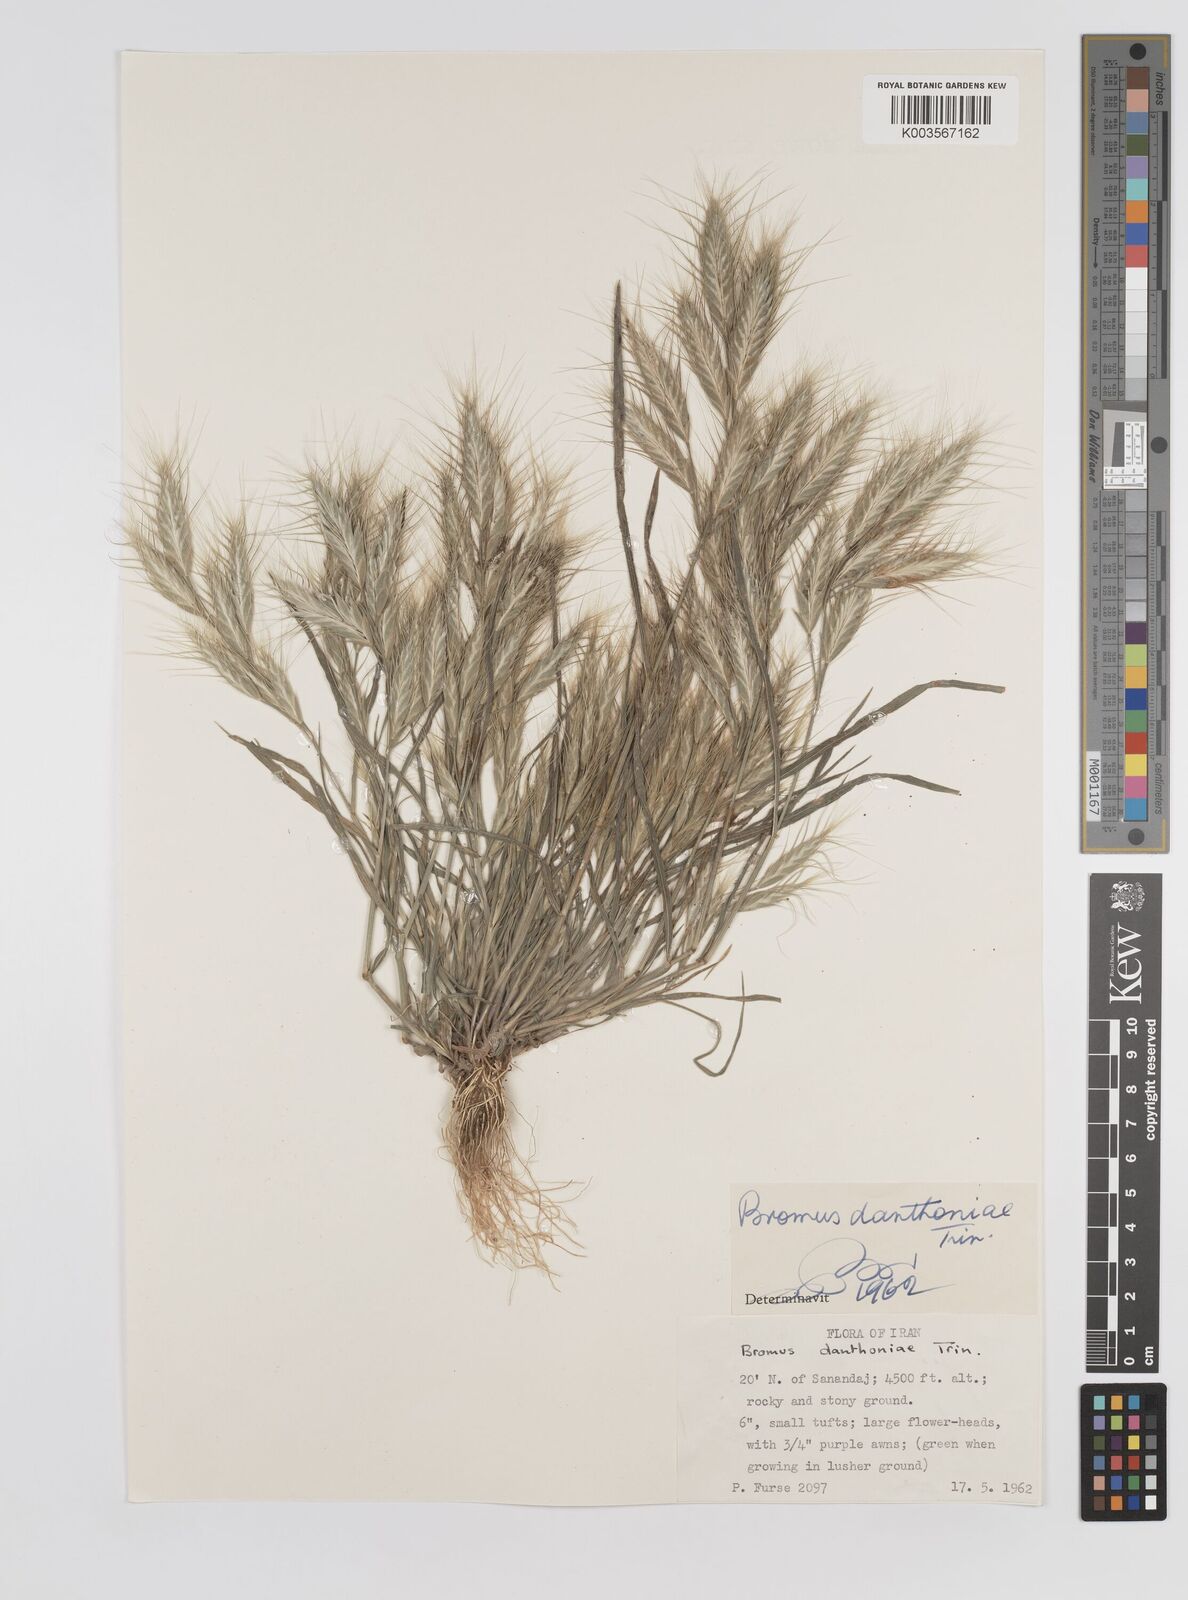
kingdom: Plantae
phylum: Tracheophyta
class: Liliopsida
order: Poales
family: Poaceae
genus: Bromus
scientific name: Bromus danthoniae
